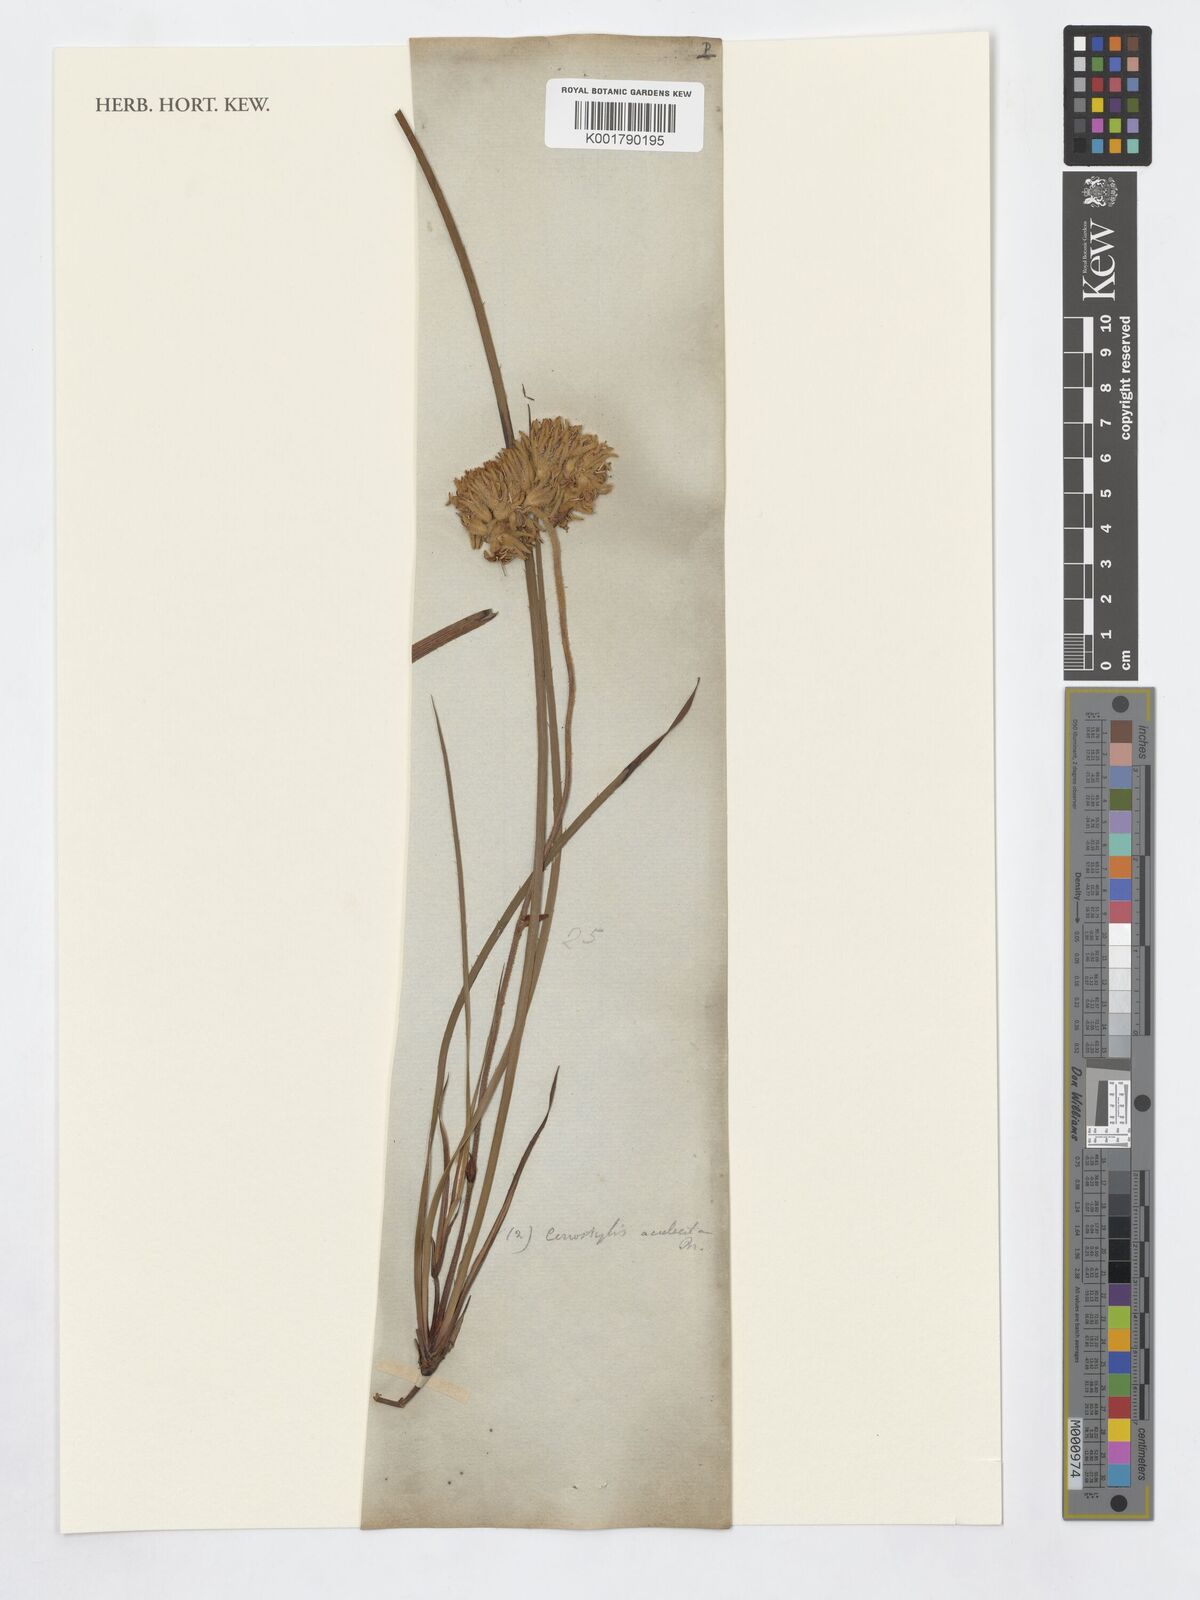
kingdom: Plantae
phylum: Tracheophyta
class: Liliopsida
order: Commelinales
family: Haemodoraceae
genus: Conostylis
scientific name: Conostylis aculeata
